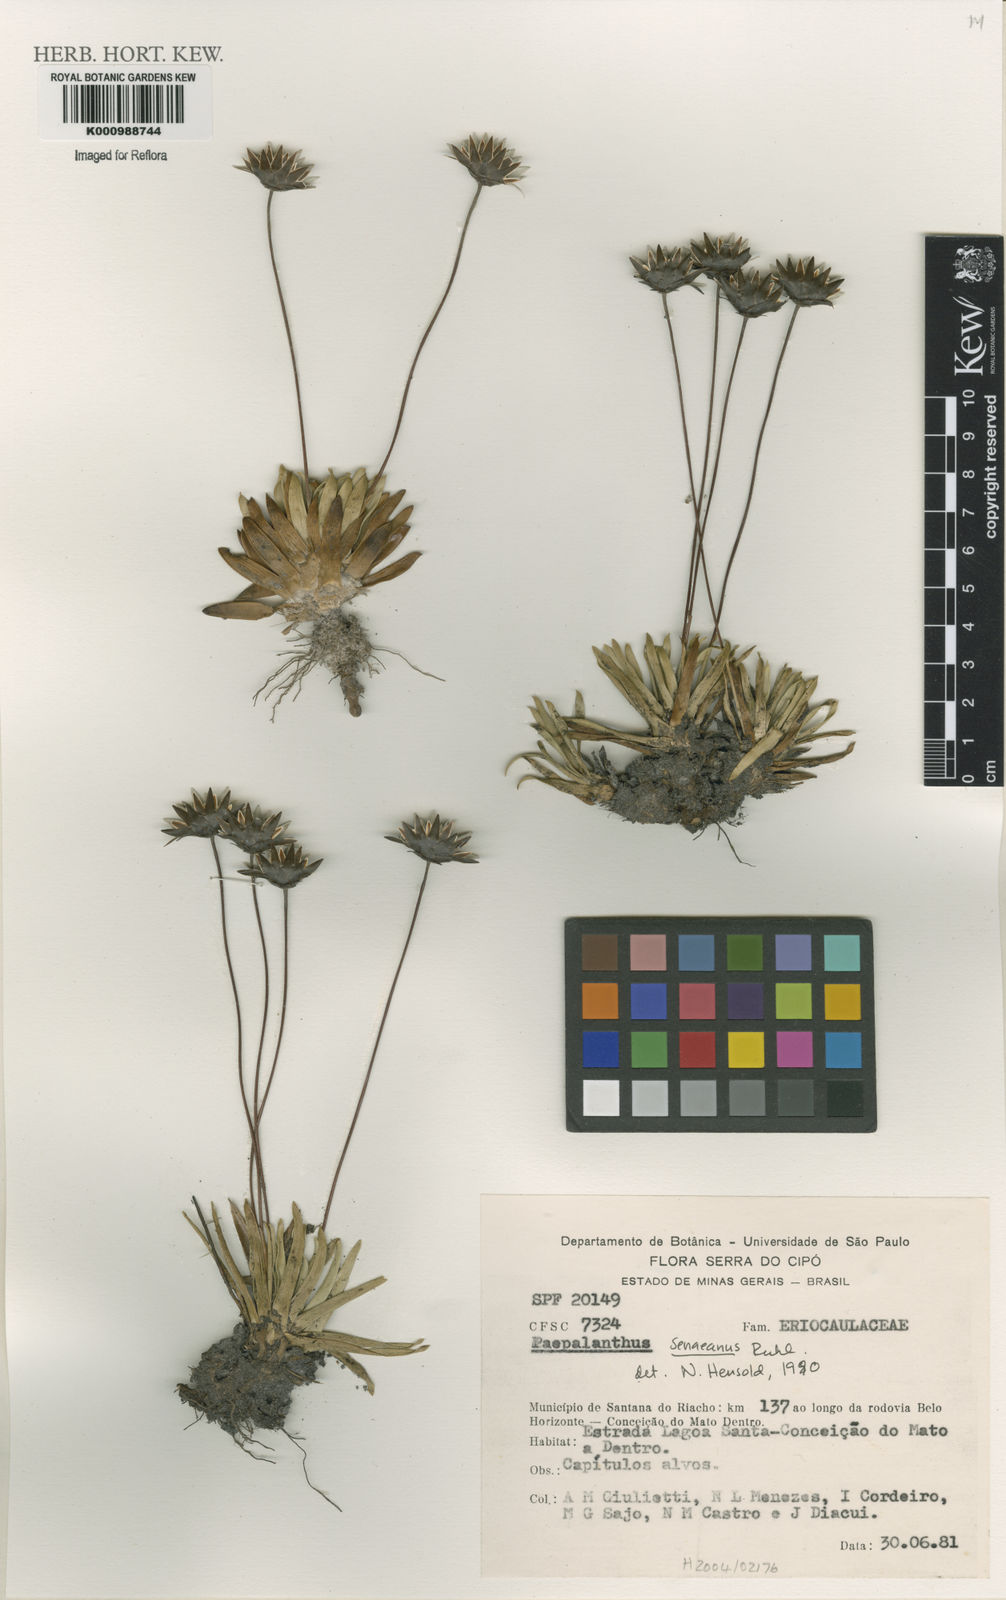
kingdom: Plantae
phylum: Tracheophyta
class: Liliopsida
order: Poales
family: Eriocaulaceae
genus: Paepalanthus
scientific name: Paepalanthus
